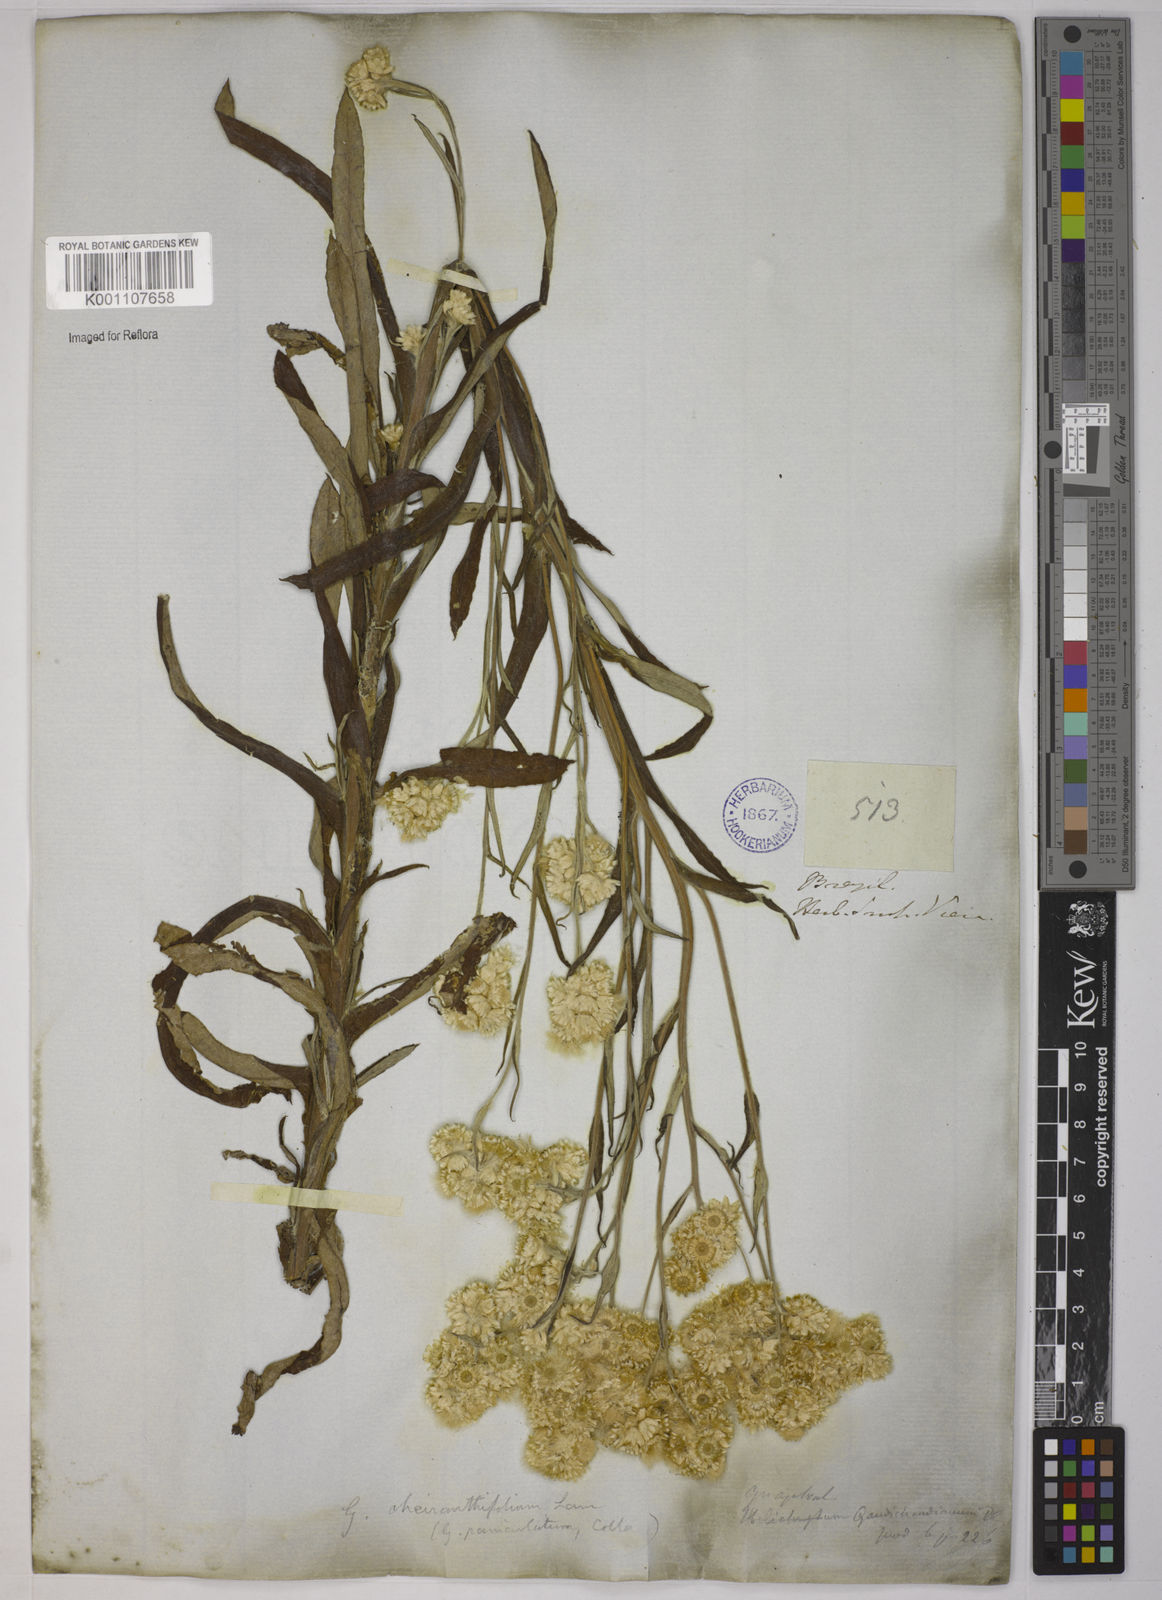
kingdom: Plantae
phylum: Tracheophyta
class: Magnoliopsida
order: Asterales
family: Asteraceae
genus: Pseudognaphalium
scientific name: Pseudognaphalium cheiranthifolium
